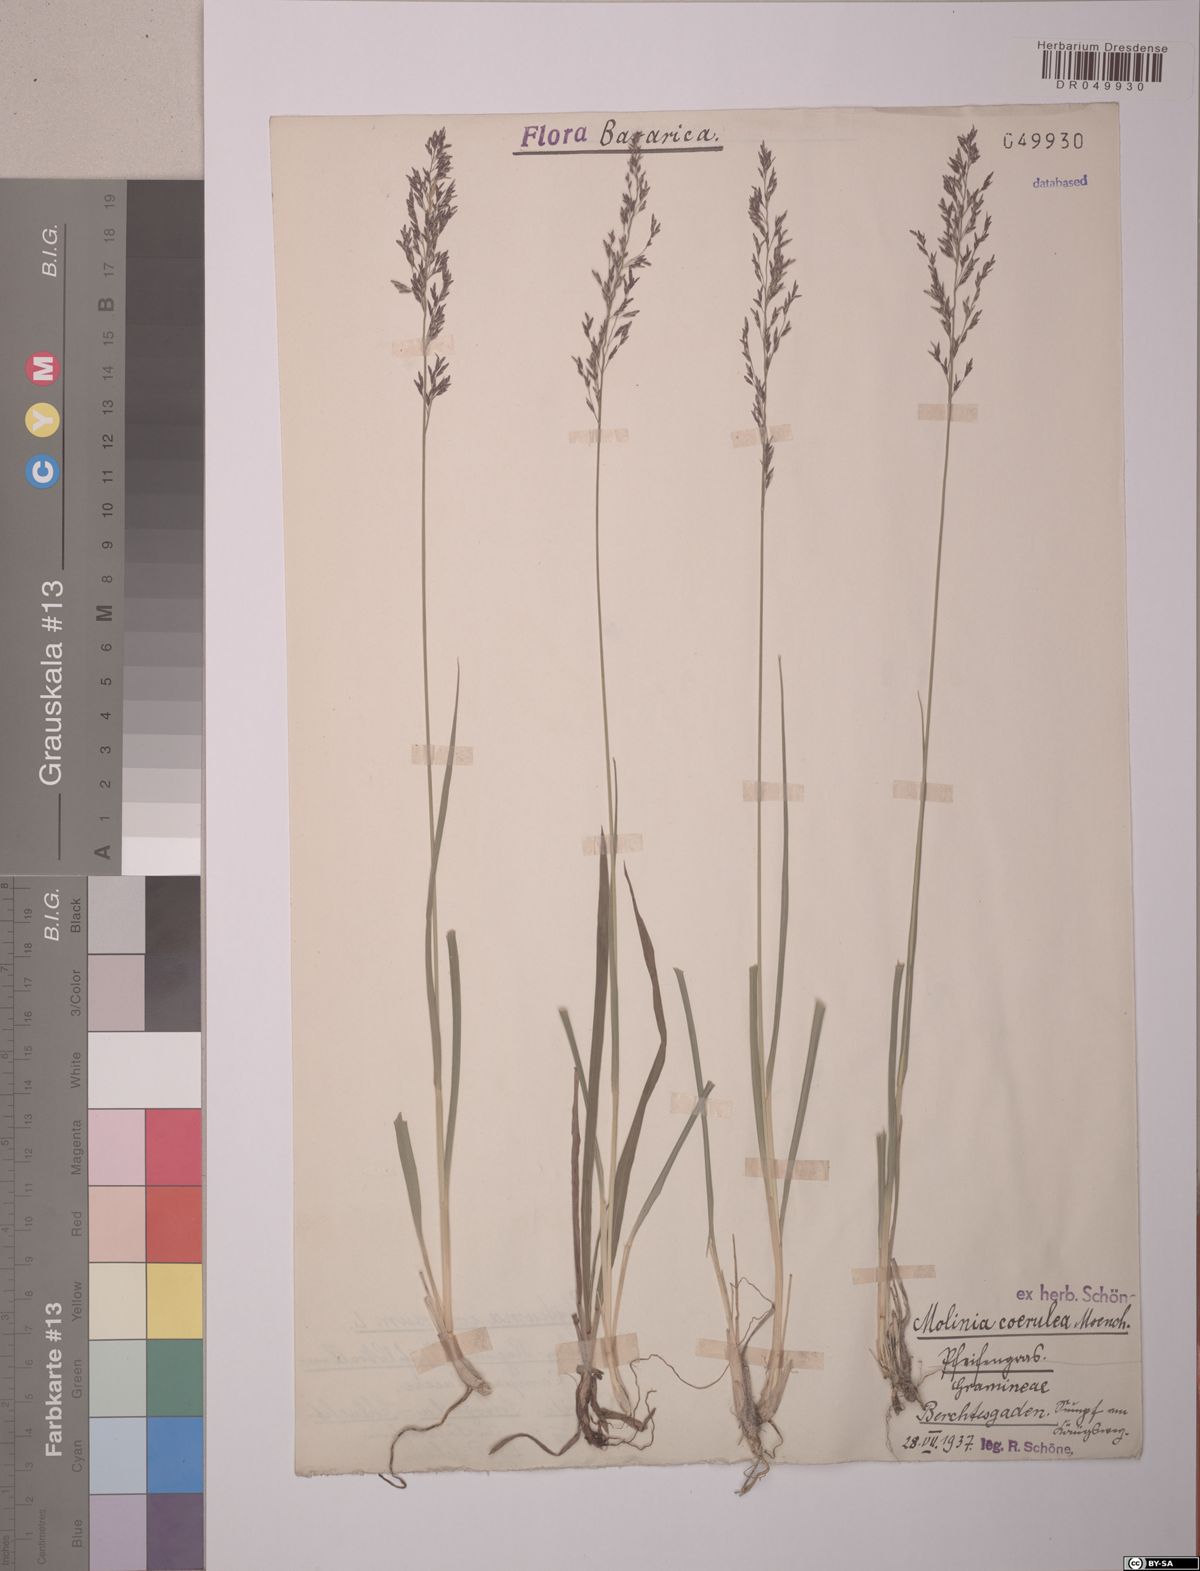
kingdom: Plantae
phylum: Tracheophyta
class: Liliopsida
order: Poales
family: Poaceae
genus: Molinia
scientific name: Molinia caerulea
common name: Purple moor-grass
